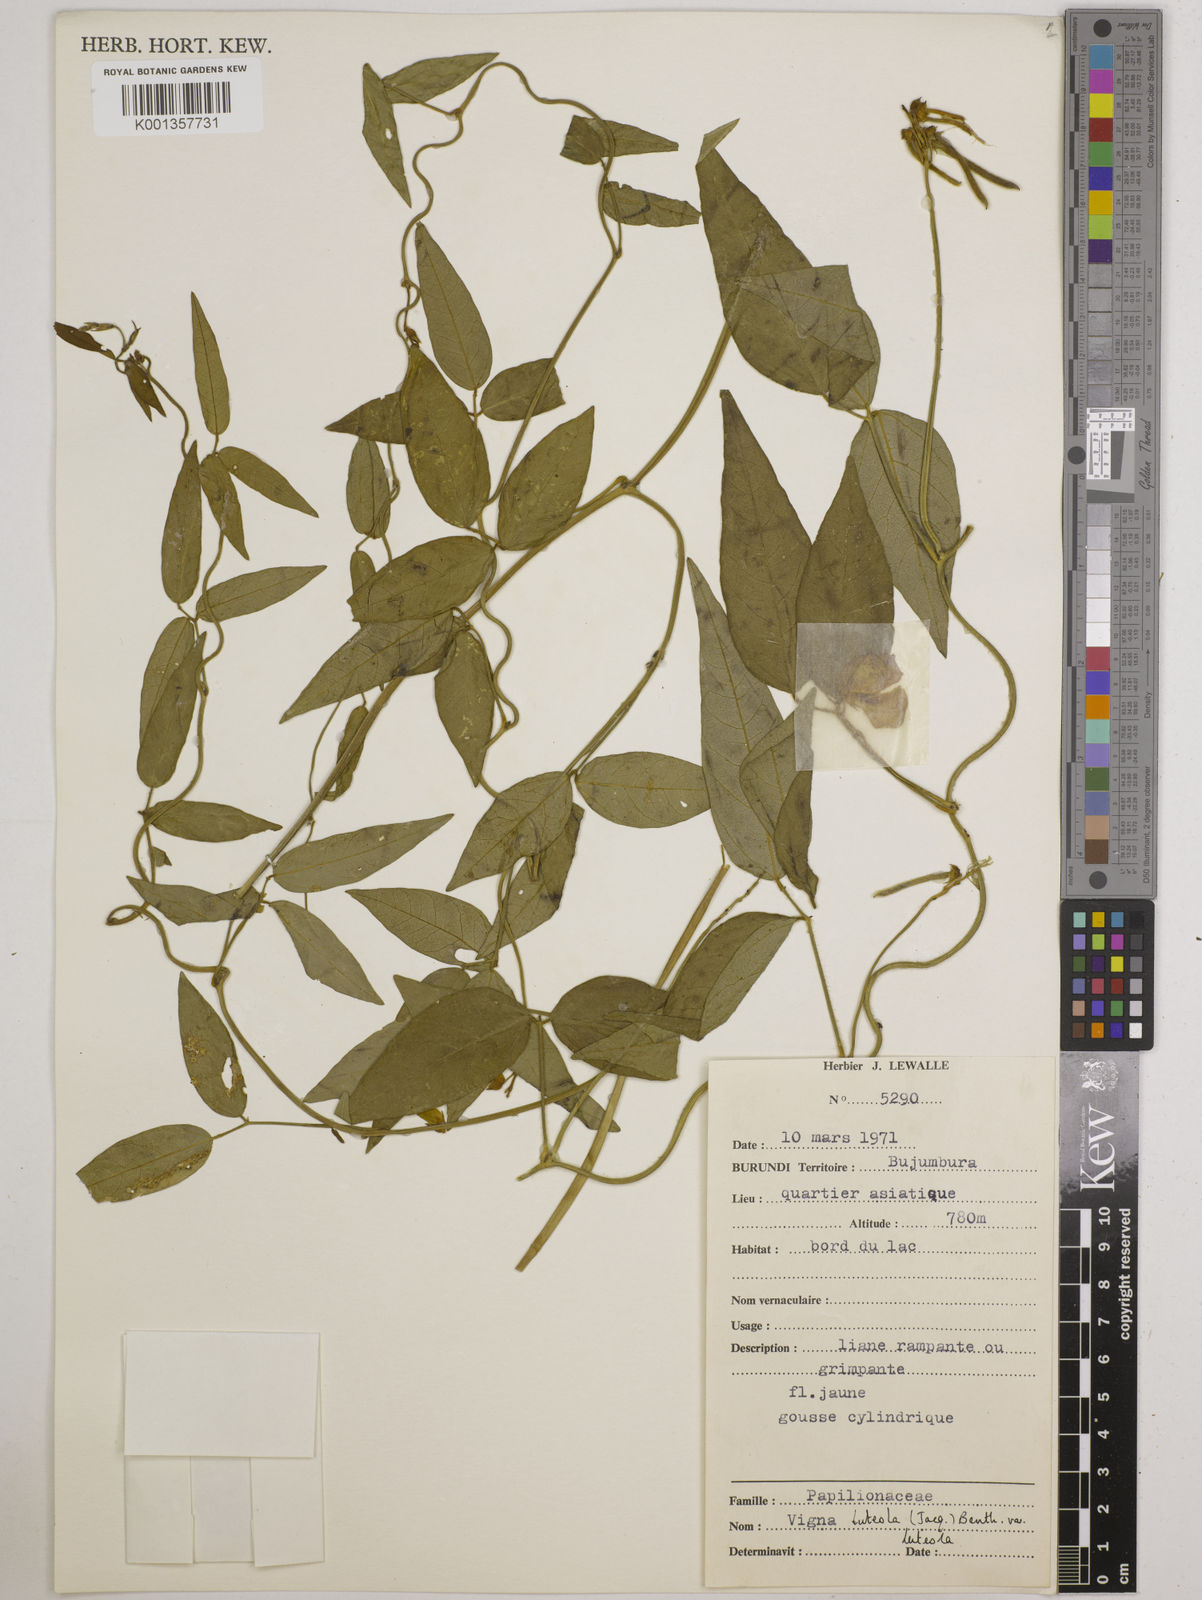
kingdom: Plantae
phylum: Tracheophyta
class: Magnoliopsida
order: Fabales
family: Fabaceae
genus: Vigna
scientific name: Vigna luteola
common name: Hairypod cowpea
